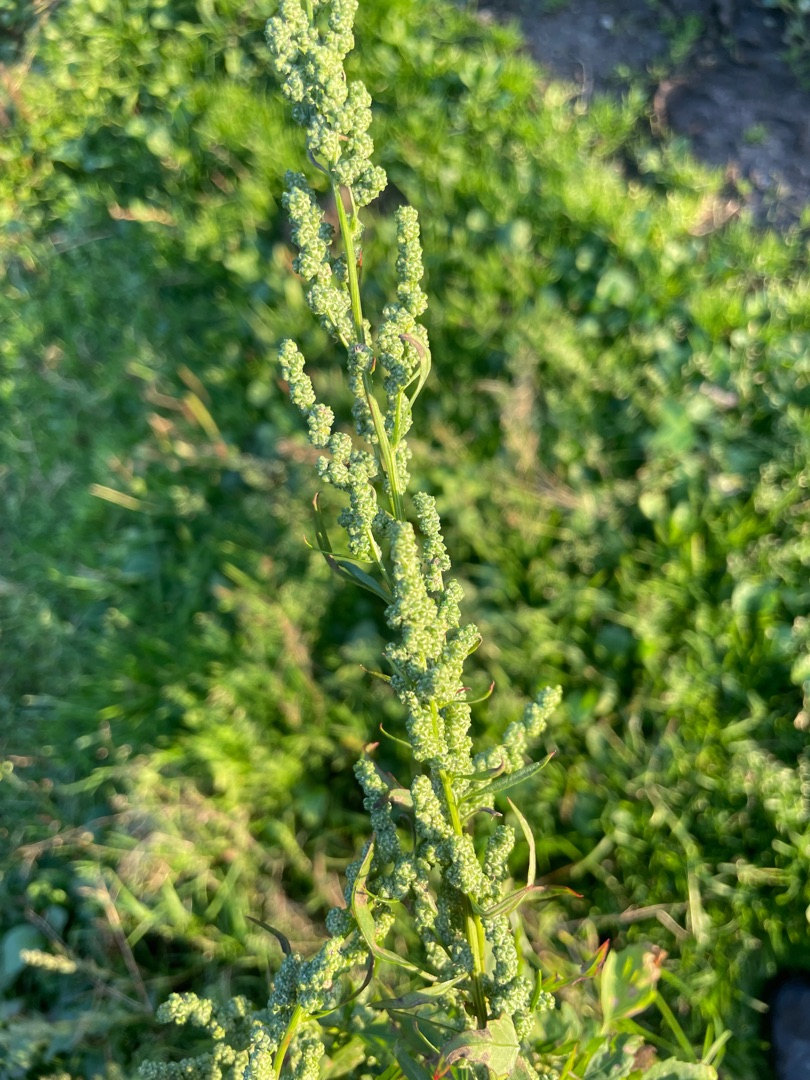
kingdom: Plantae
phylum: Tracheophyta
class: Magnoliopsida
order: Caryophyllales
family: Amaranthaceae
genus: Chenopodium
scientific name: Chenopodium album
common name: Hvidmelet gåsefod
